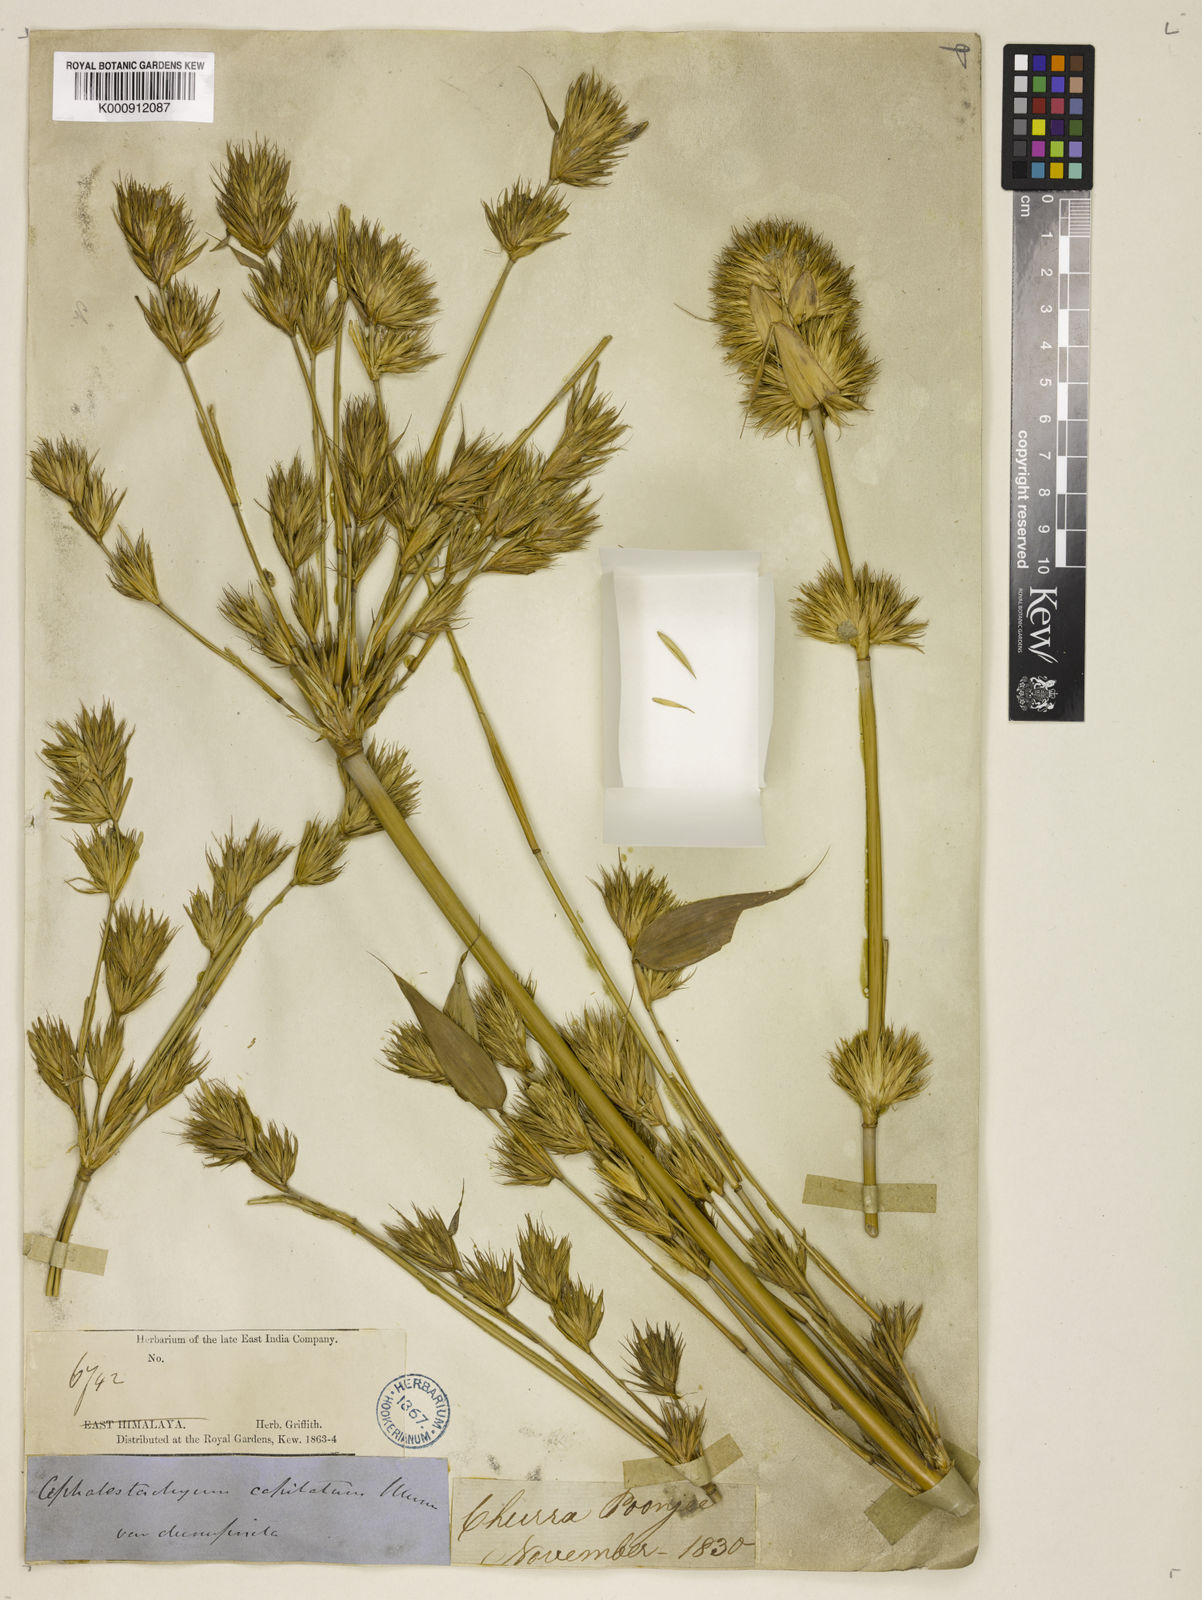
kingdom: Plantae
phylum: Tracheophyta
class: Liliopsida
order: Poales
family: Poaceae
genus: Cephalostachyum
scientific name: Cephalostachyum capitatum
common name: Hollow bamboo
